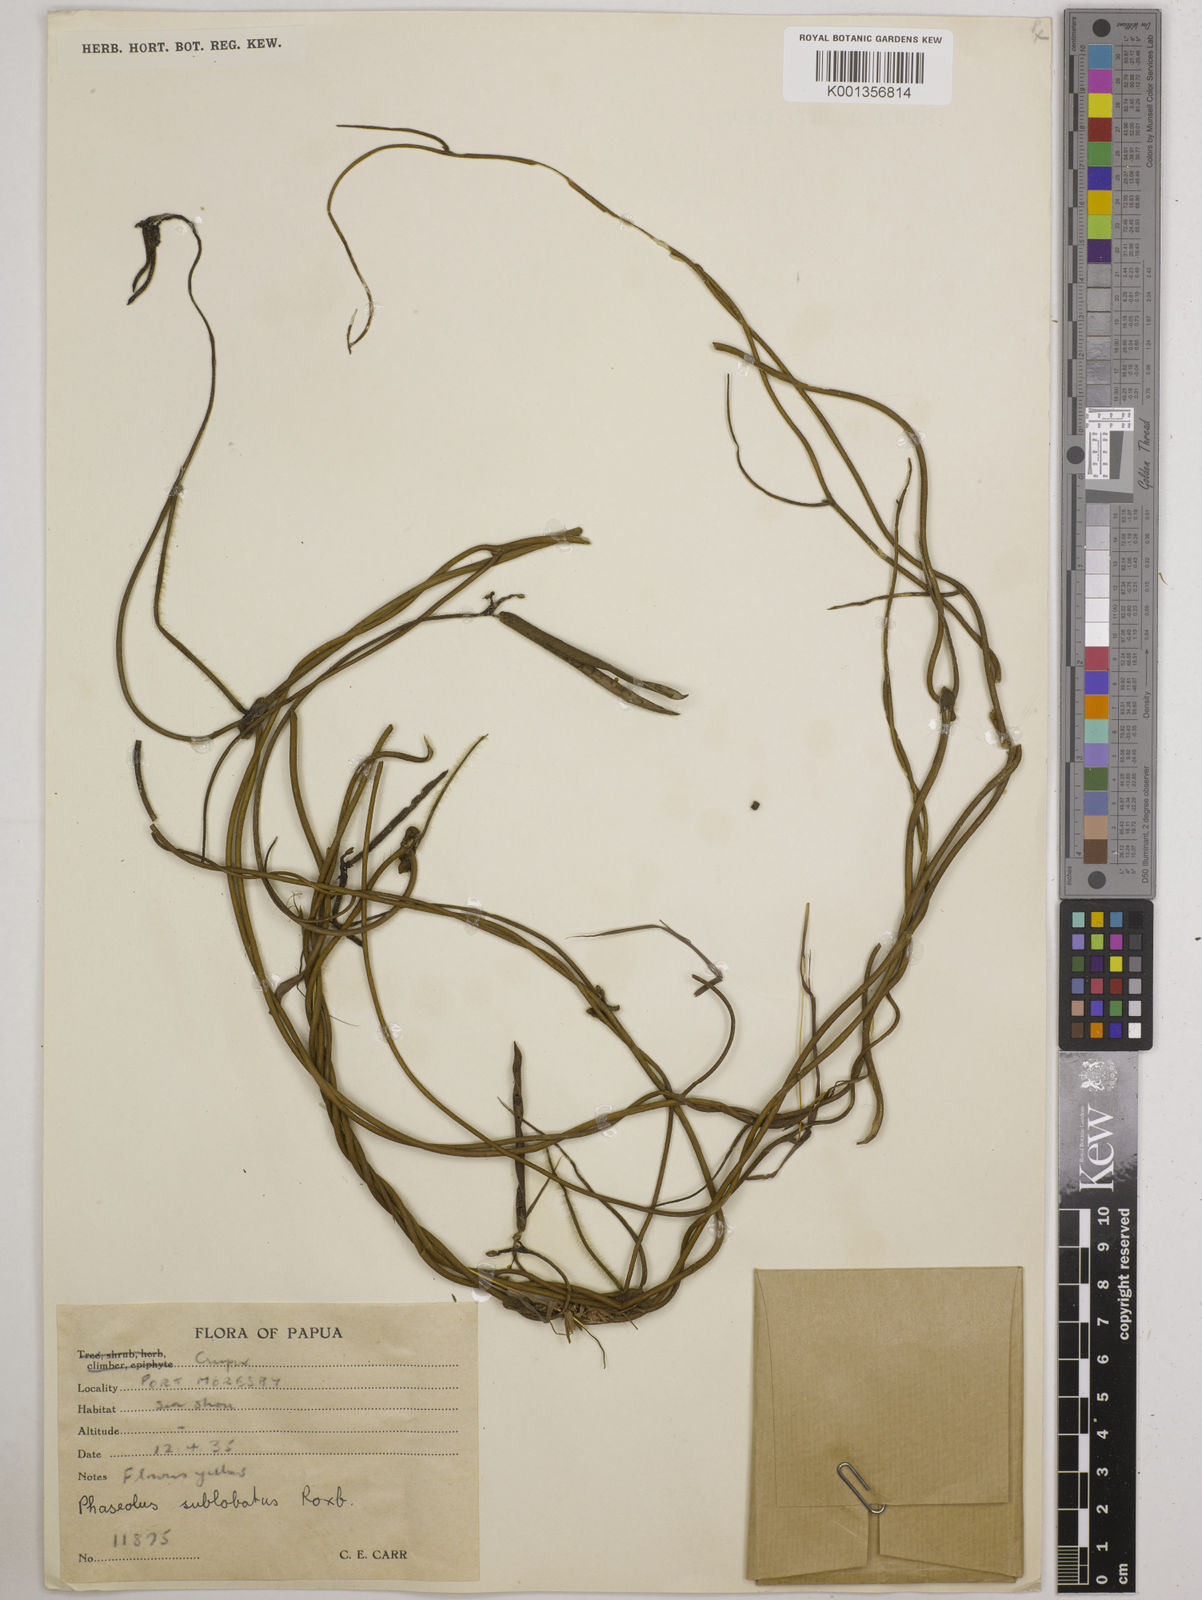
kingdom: Plantae
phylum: Tracheophyta
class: Magnoliopsida
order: Fabales
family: Fabaceae
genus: Vigna
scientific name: Vigna radiata
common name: Mung-bean
